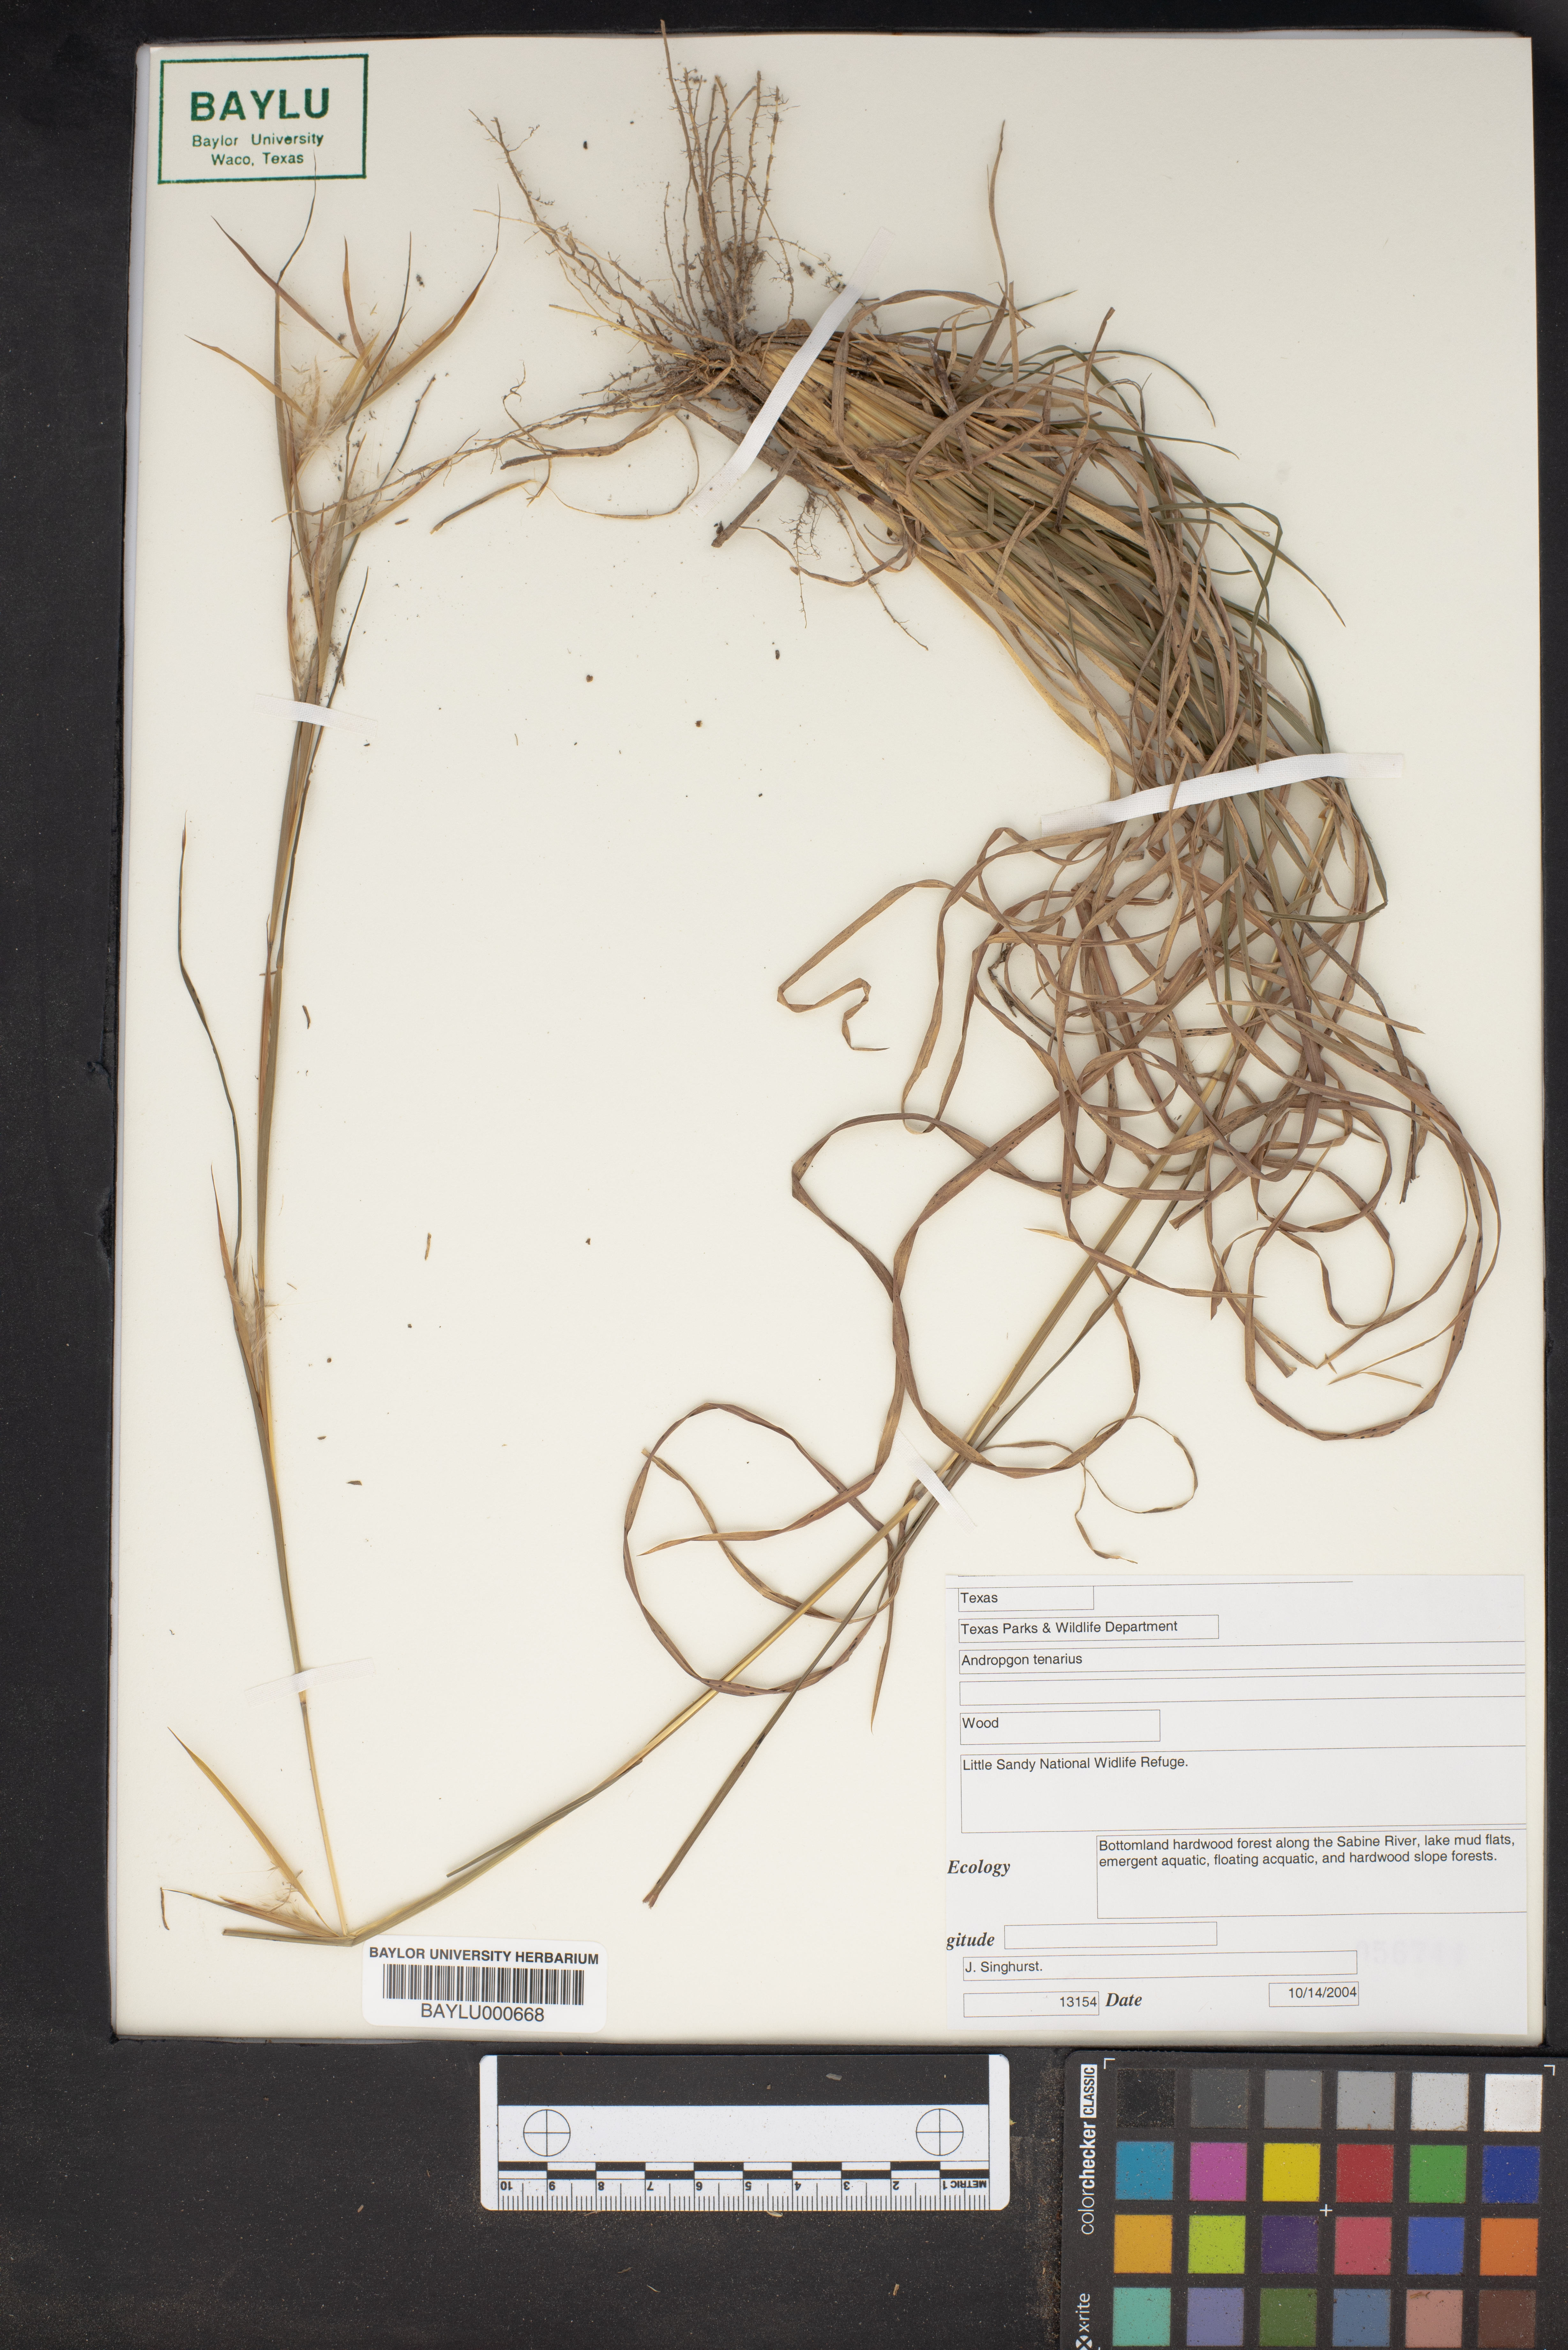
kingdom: Plantae
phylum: Tracheophyta
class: Liliopsida
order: Poales
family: Poaceae
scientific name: Poaceae
